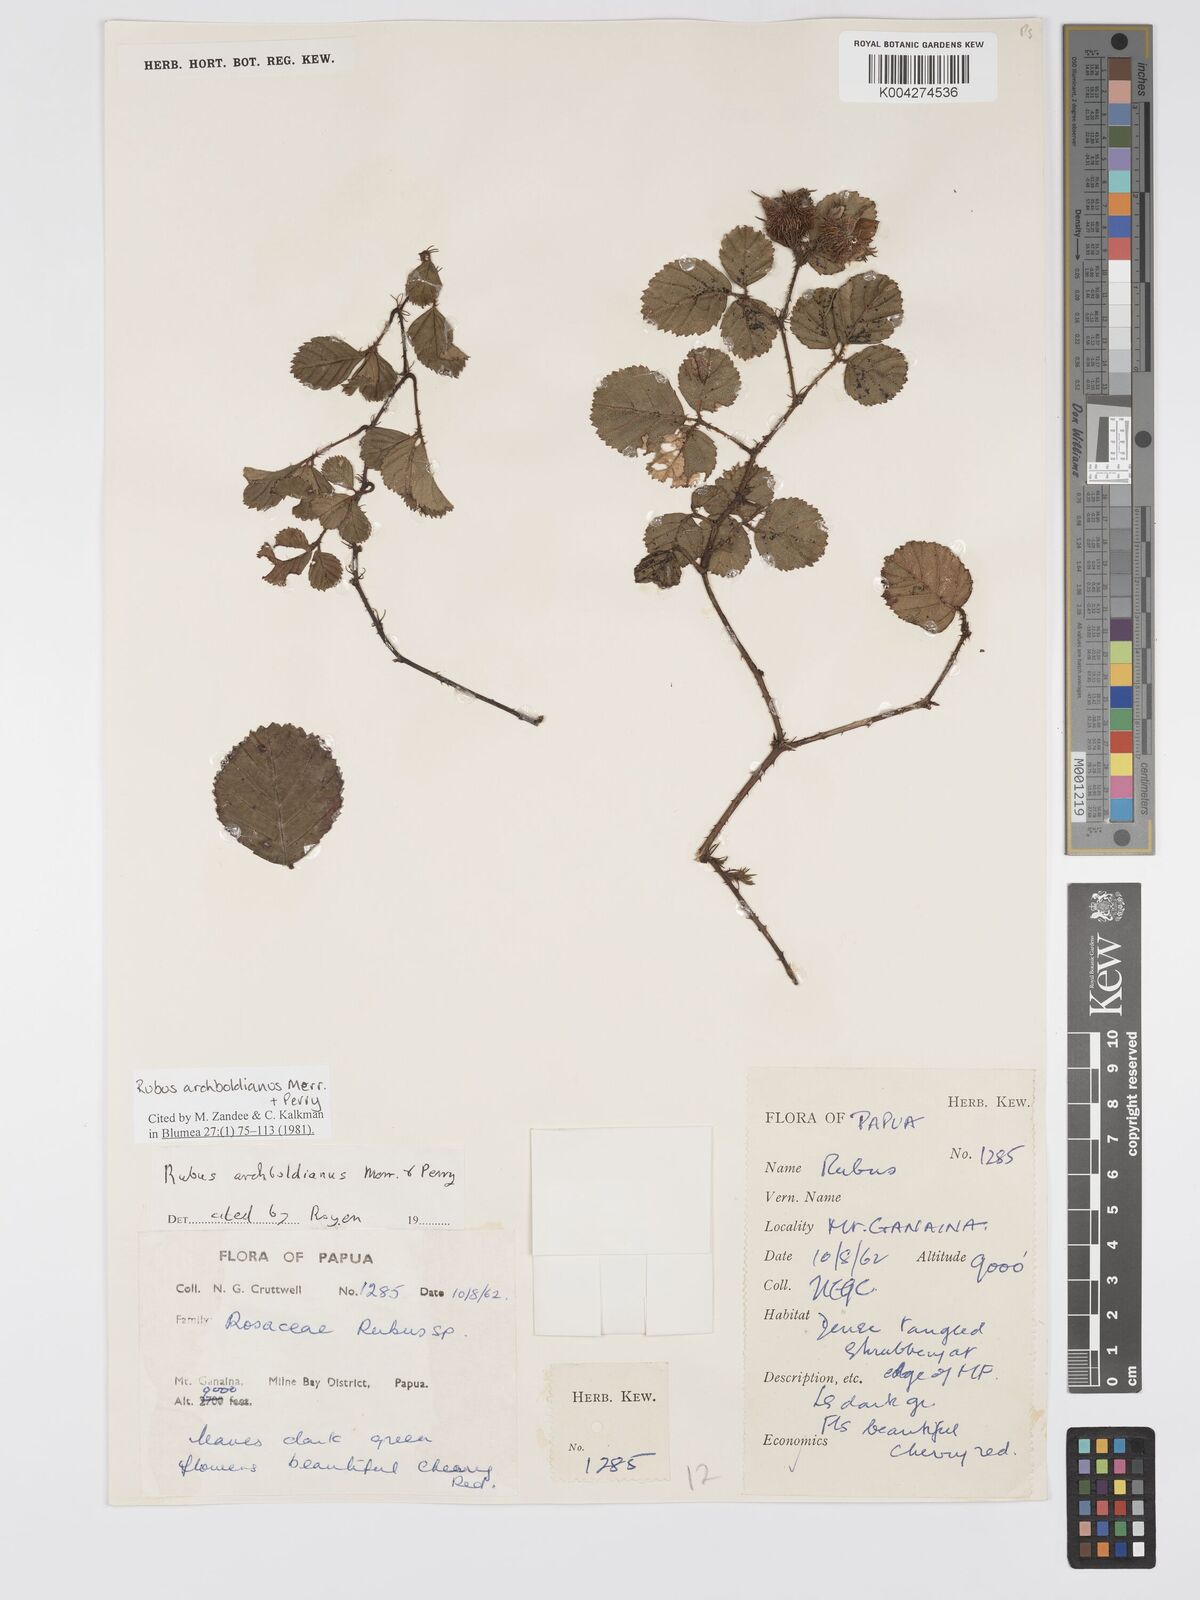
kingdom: Plantae
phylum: Tracheophyta
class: Magnoliopsida
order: Rosales
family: Rosaceae
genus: Rubus
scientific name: Rubus archboldianus
